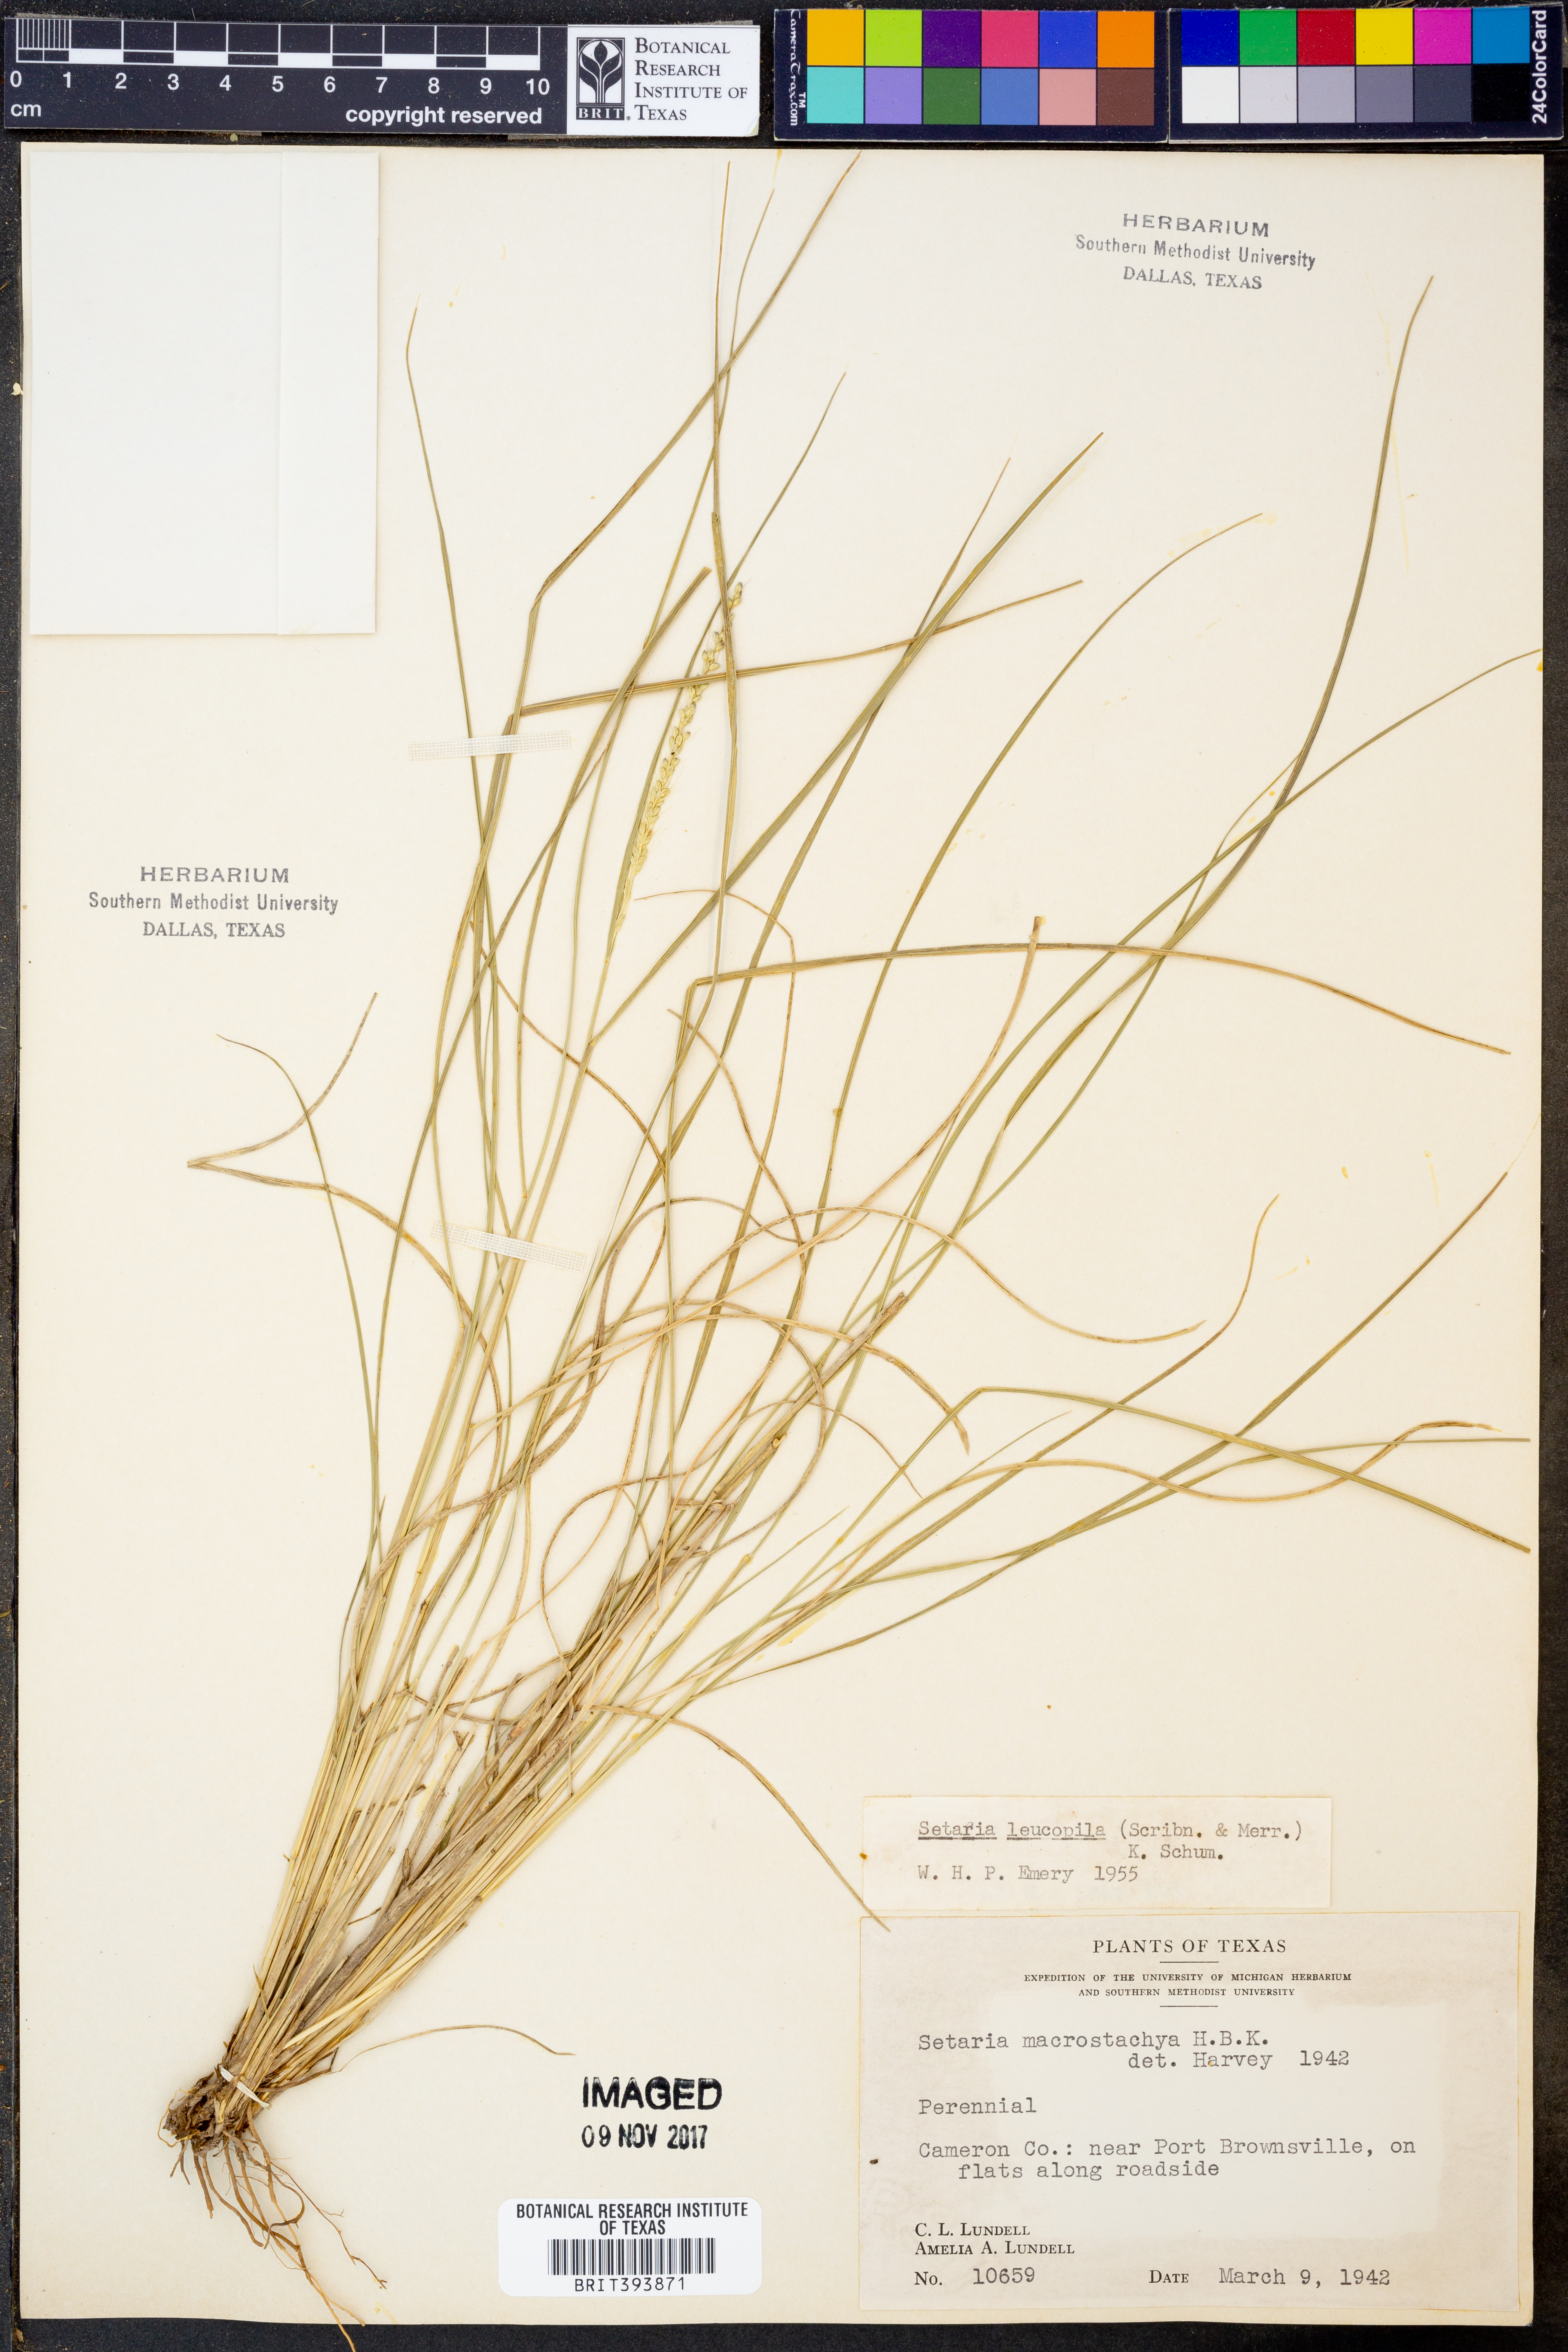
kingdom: Plantae
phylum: Tracheophyta
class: Liliopsida
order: Poales
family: Poaceae
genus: Setaria
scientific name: Setaria leucopila
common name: Plains bristle grass
